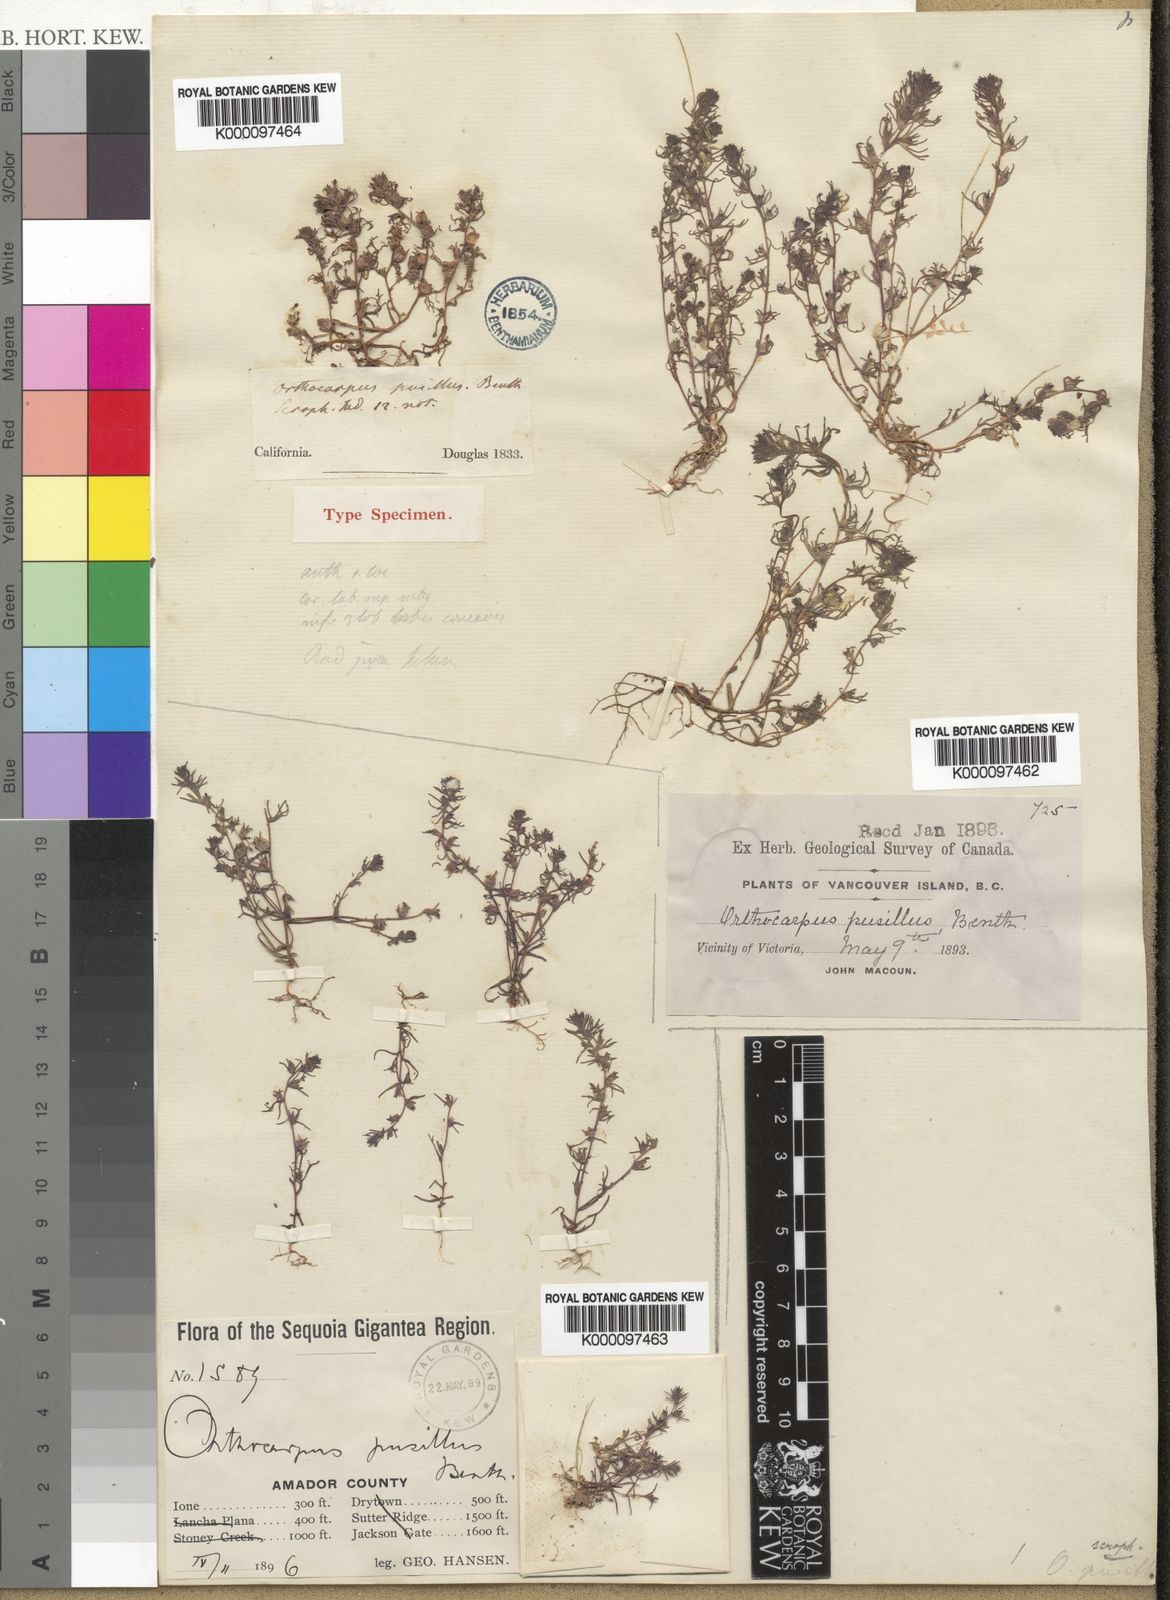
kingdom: Plantae
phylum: Tracheophyta
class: Magnoliopsida
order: Lamiales
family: Orobanchaceae
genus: Triphysaria
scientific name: Triphysaria pusilla
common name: Dwarf false owl-clover
